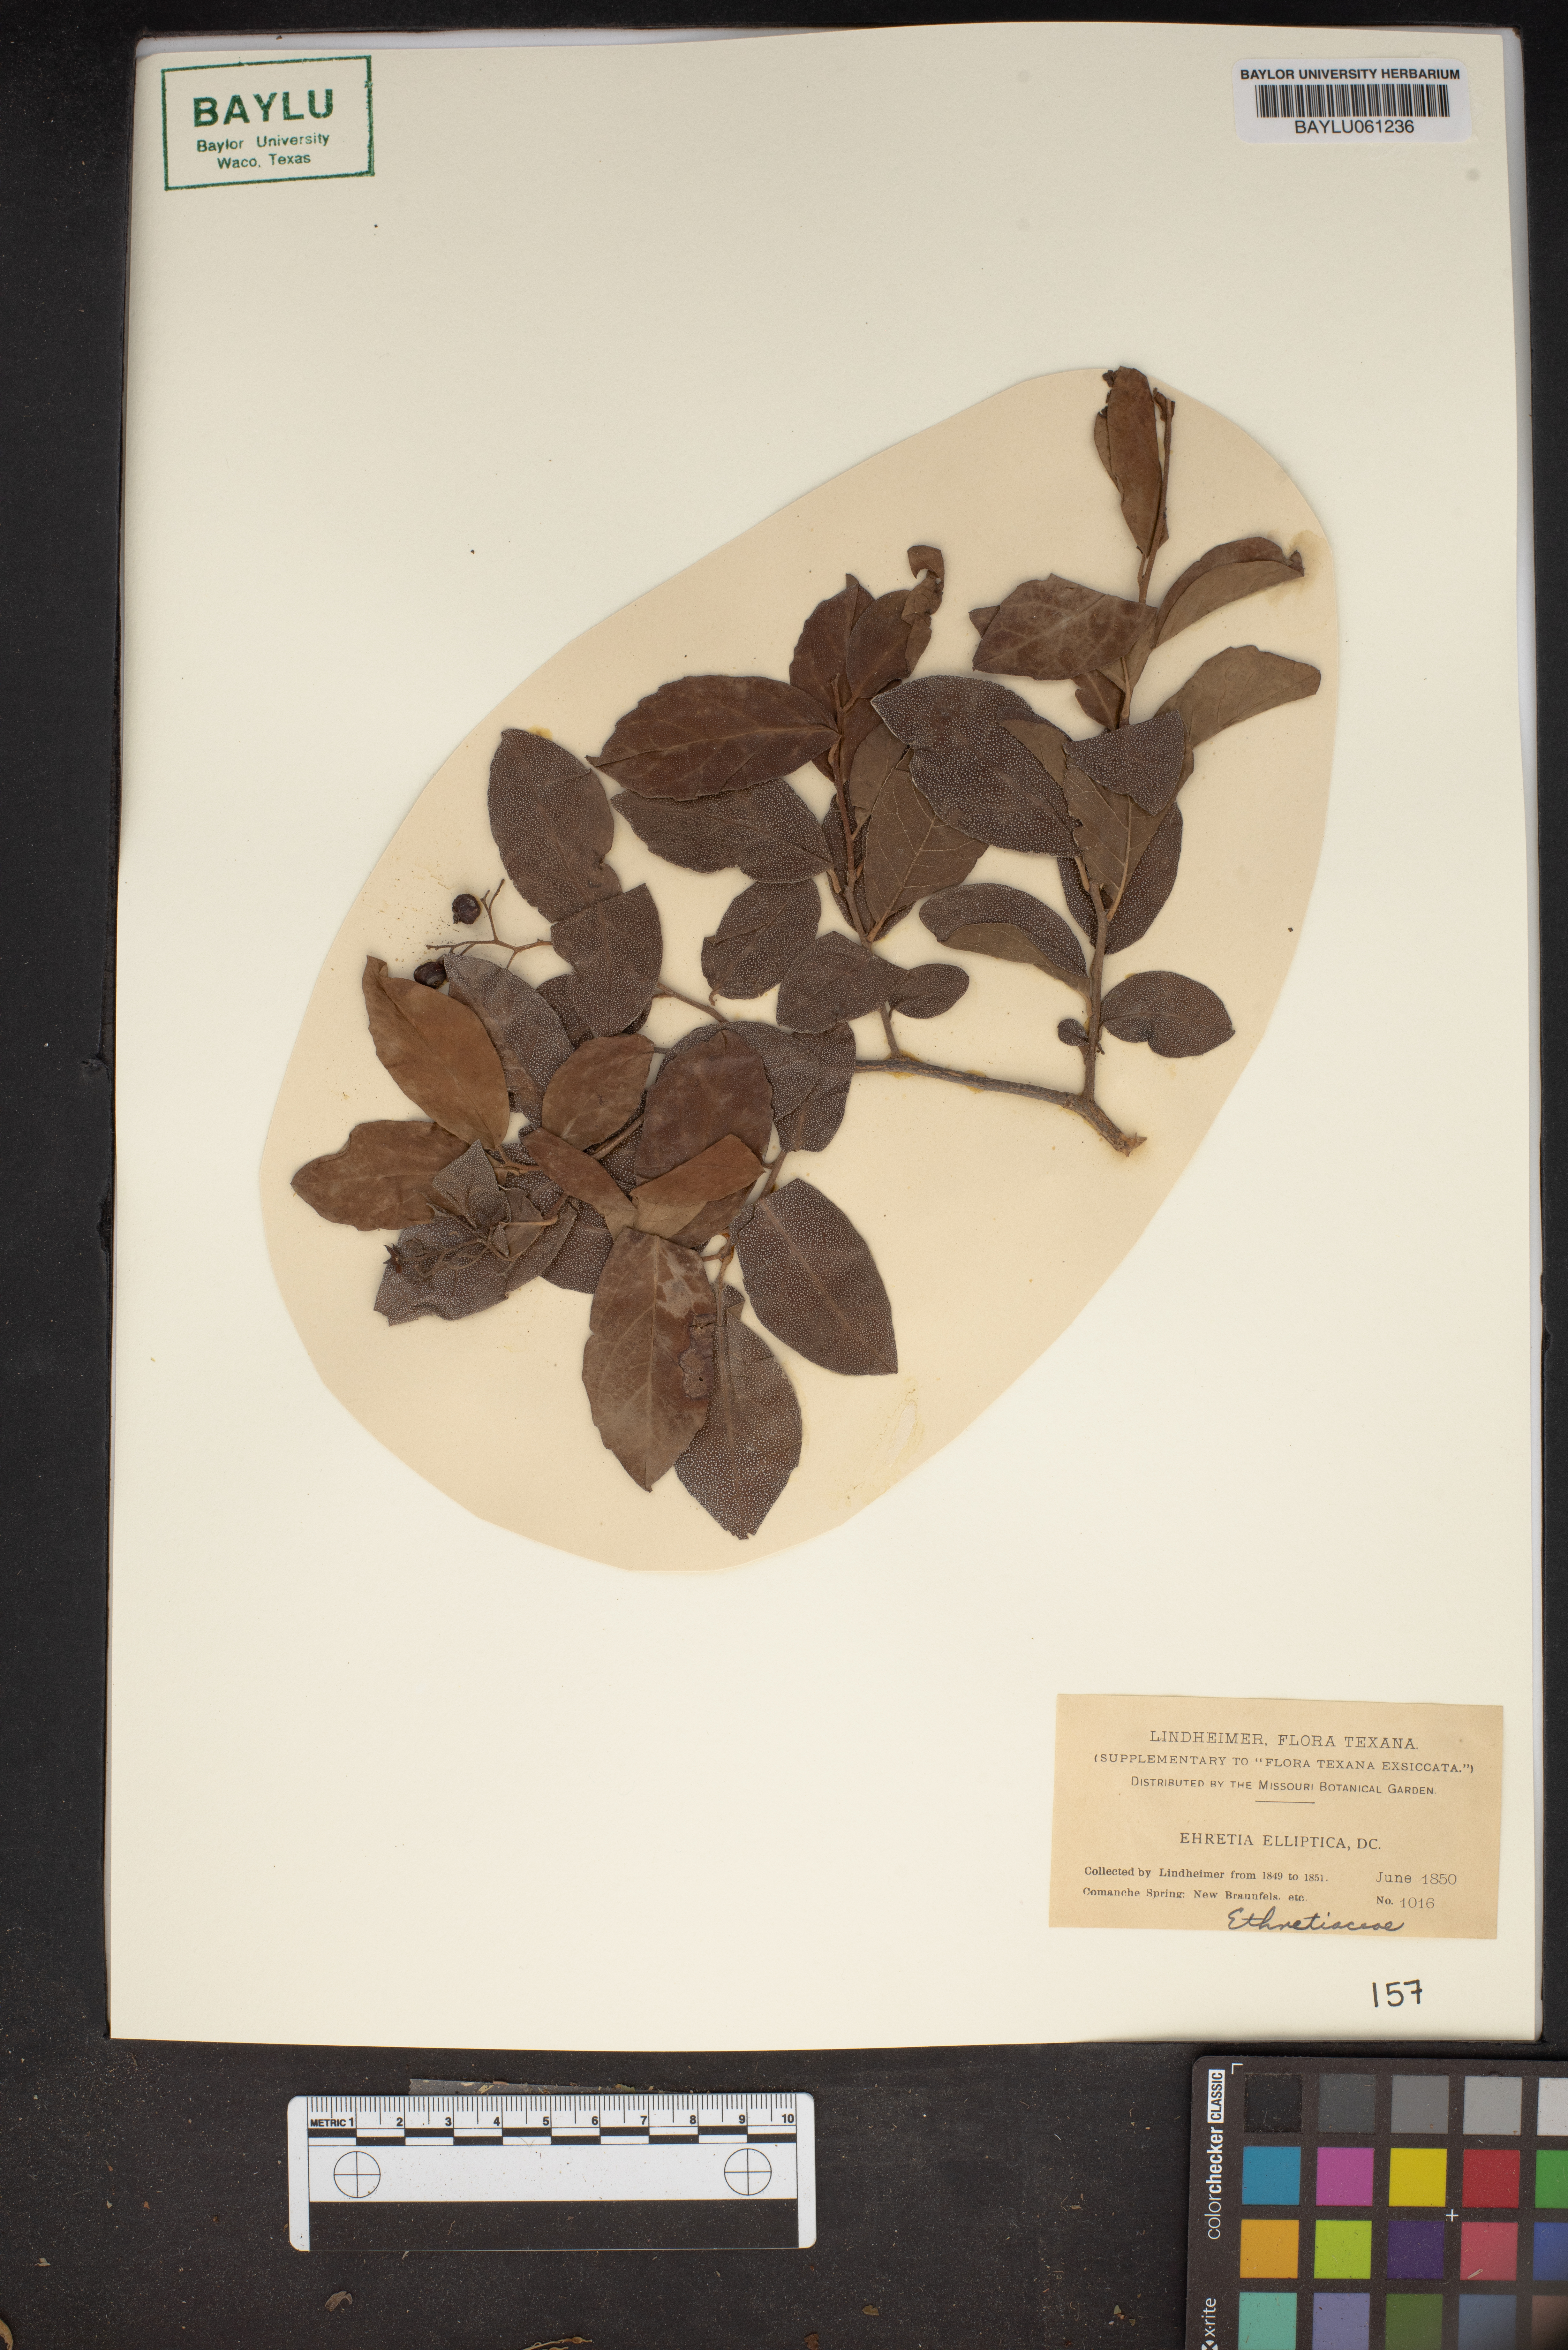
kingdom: Plantae
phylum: Tracheophyta
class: Magnoliopsida
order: Boraginales
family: Ehretiaceae
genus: Ehretia
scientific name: Ehretia anacua
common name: Sugarberry
